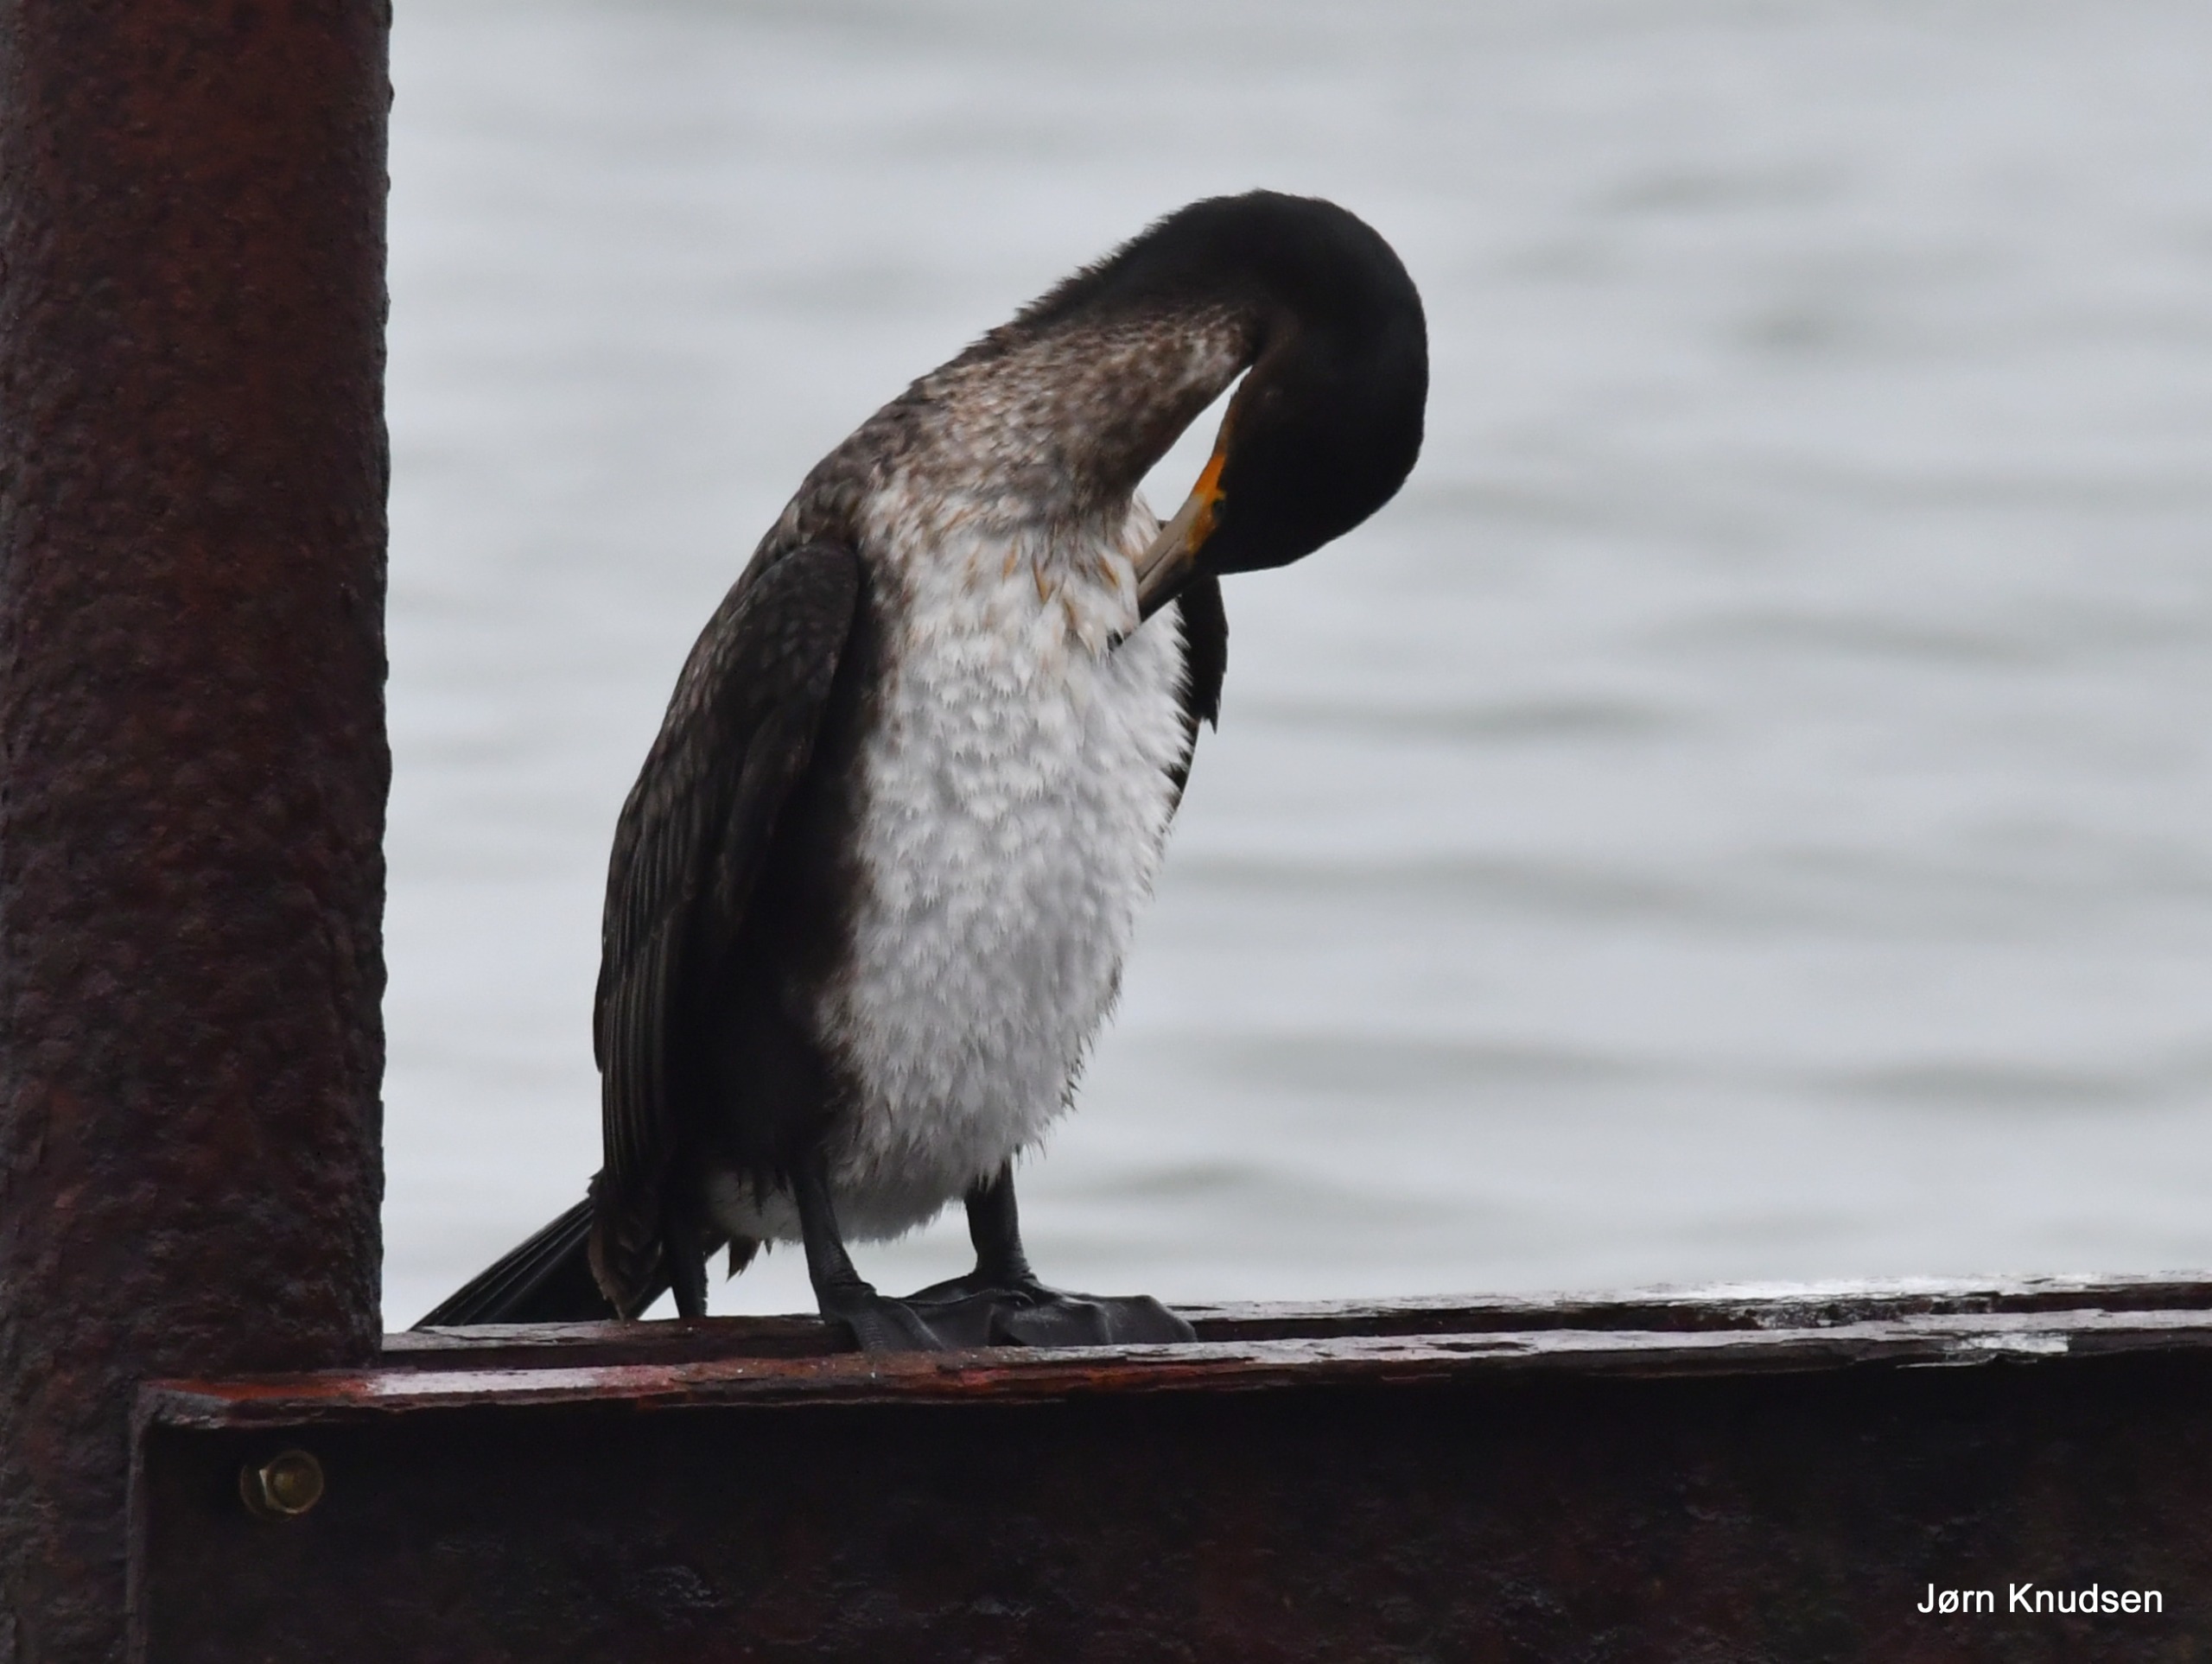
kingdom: Animalia
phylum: Chordata
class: Aves
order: Suliformes
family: Phalacrocoracidae
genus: Phalacrocorax
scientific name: Phalacrocorax carbo
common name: Mellemskarv
